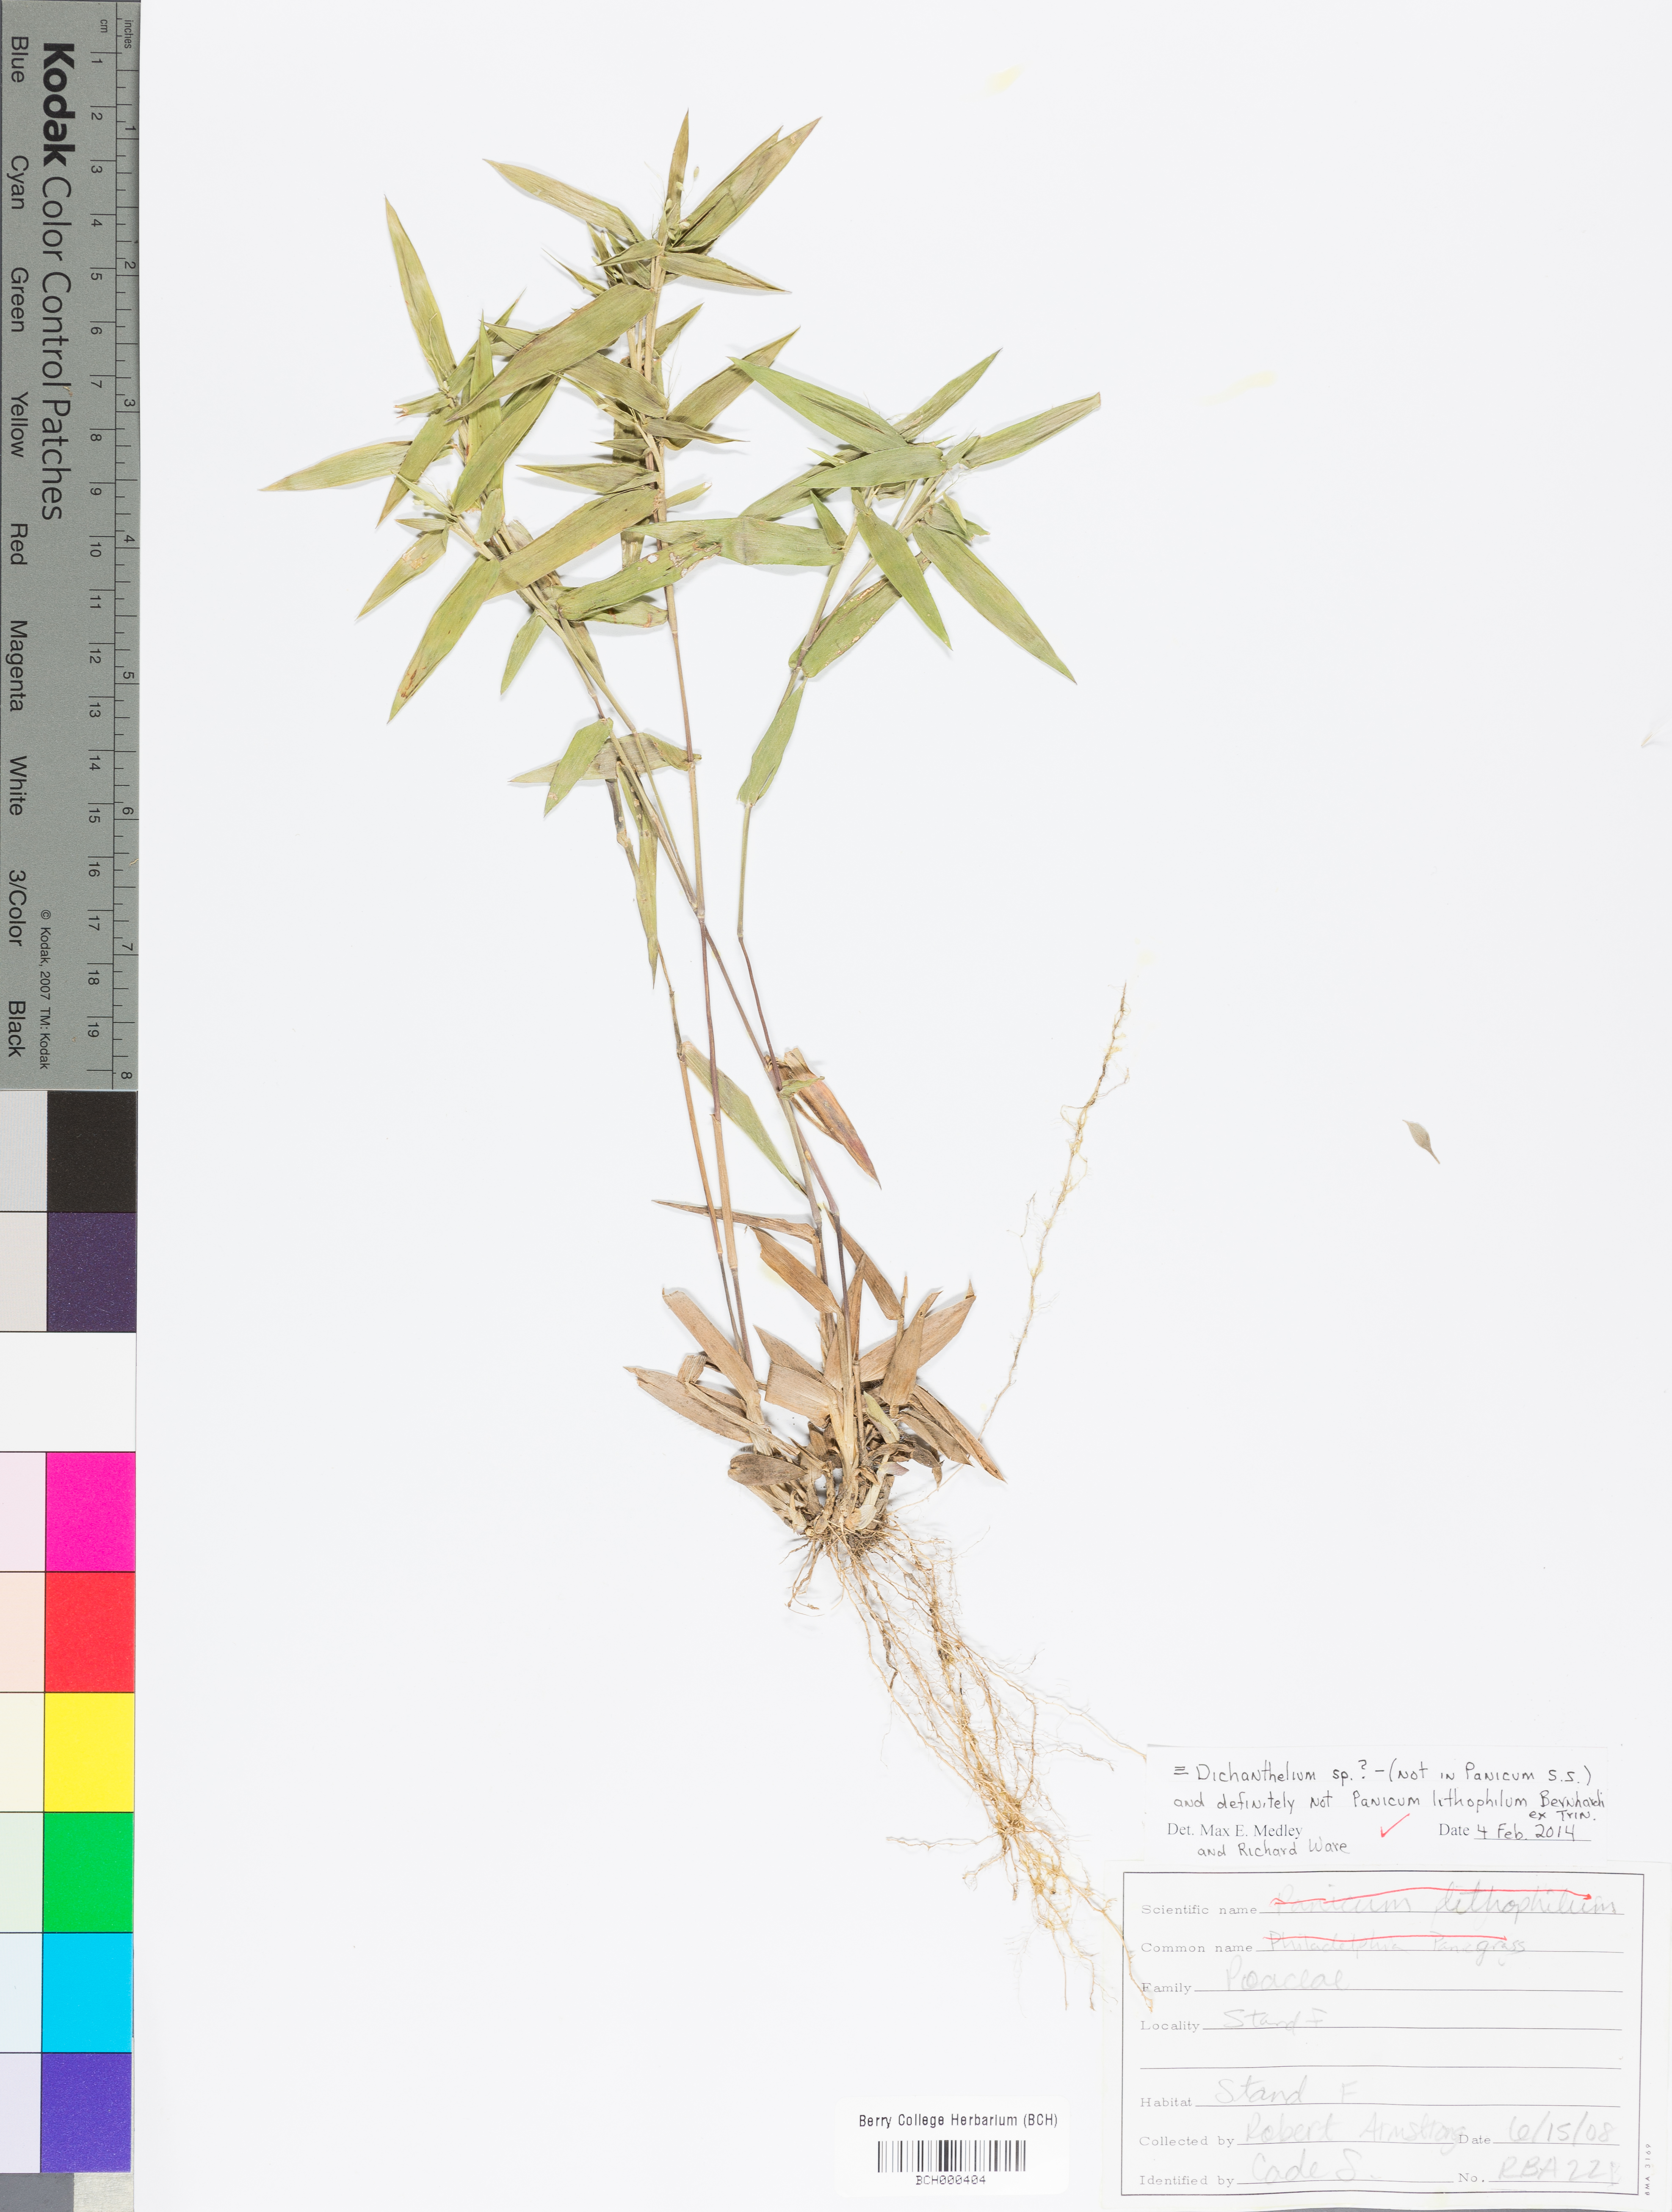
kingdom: Plantae
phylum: Tracheophyta
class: Liliopsida
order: Poales
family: Poaceae
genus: Dichanthelium
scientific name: Dichanthelium
